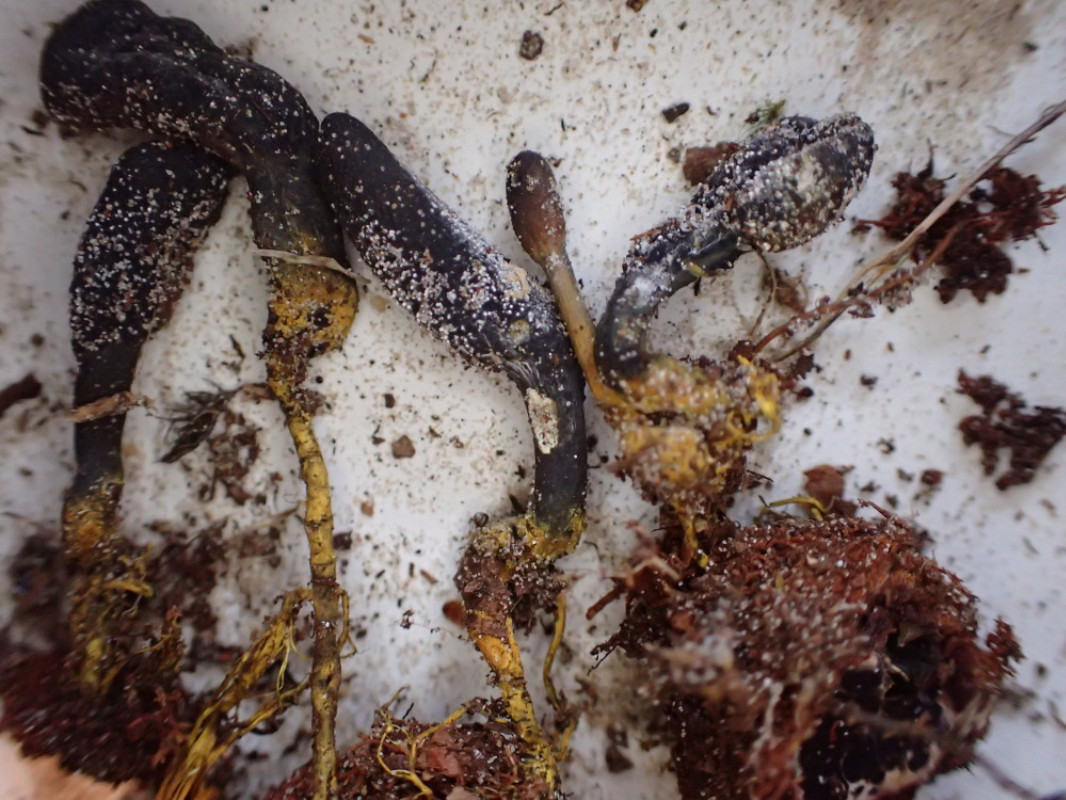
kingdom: Fungi
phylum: Ascomycota
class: Sordariomycetes
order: Hypocreales
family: Ophiocordycipitaceae
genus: Tolypocladium
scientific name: Tolypocladium ophioglossoides
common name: slank snyltekølle
